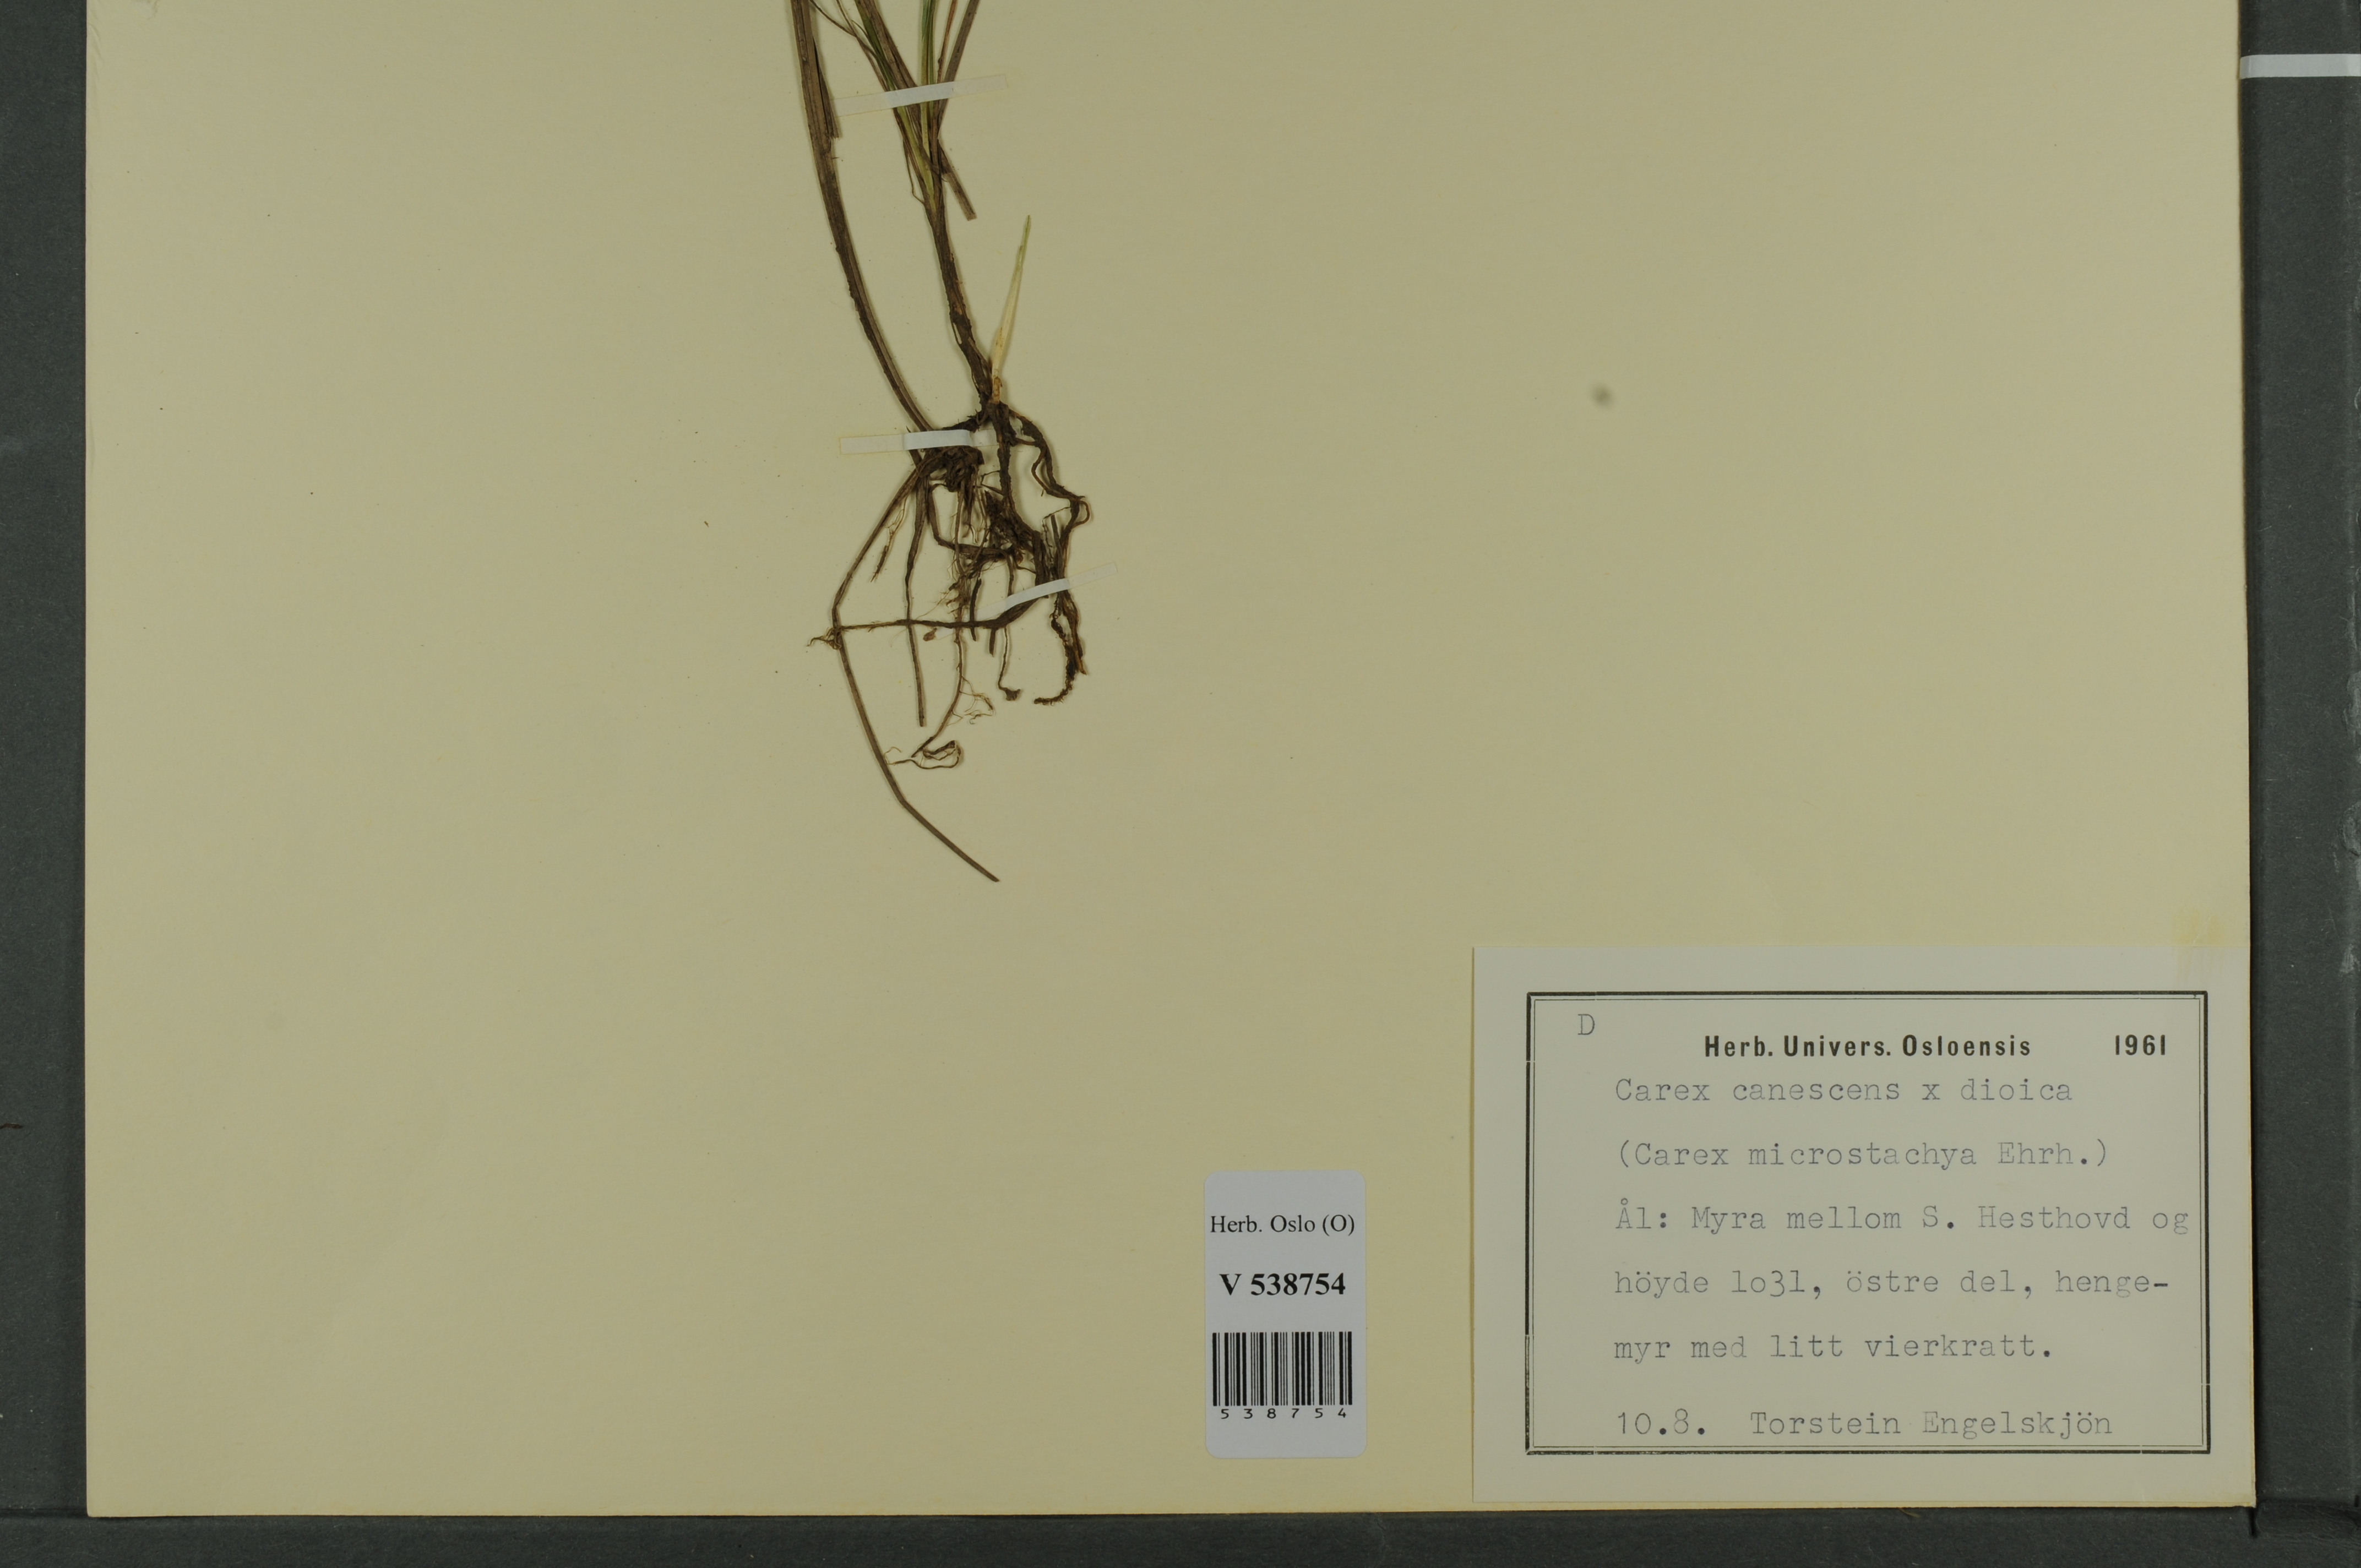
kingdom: Plantae
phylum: Tracheophyta
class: Liliopsida
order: Poales
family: Cyperaceae
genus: Carex
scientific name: Carex
